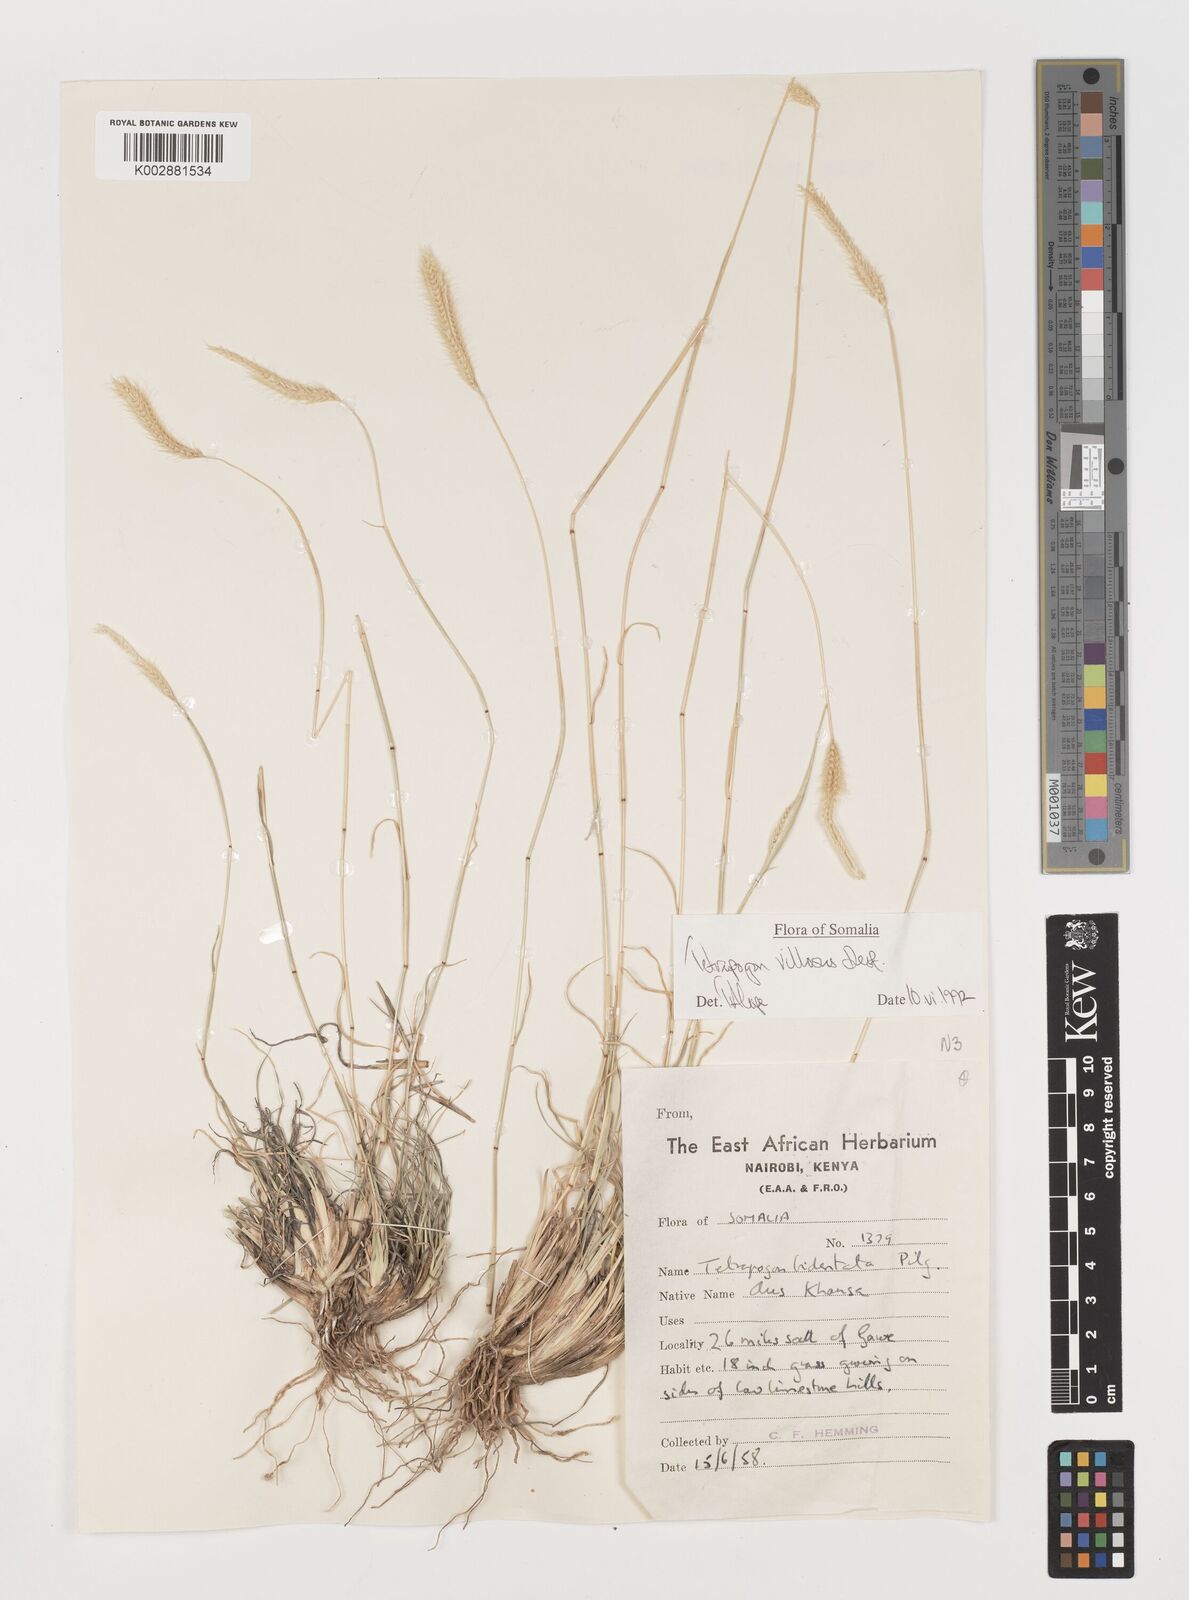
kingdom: Plantae
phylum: Tracheophyta
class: Liliopsida
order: Poales
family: Poaceae
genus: Tetrapogon
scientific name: Tetrapogon villosus
